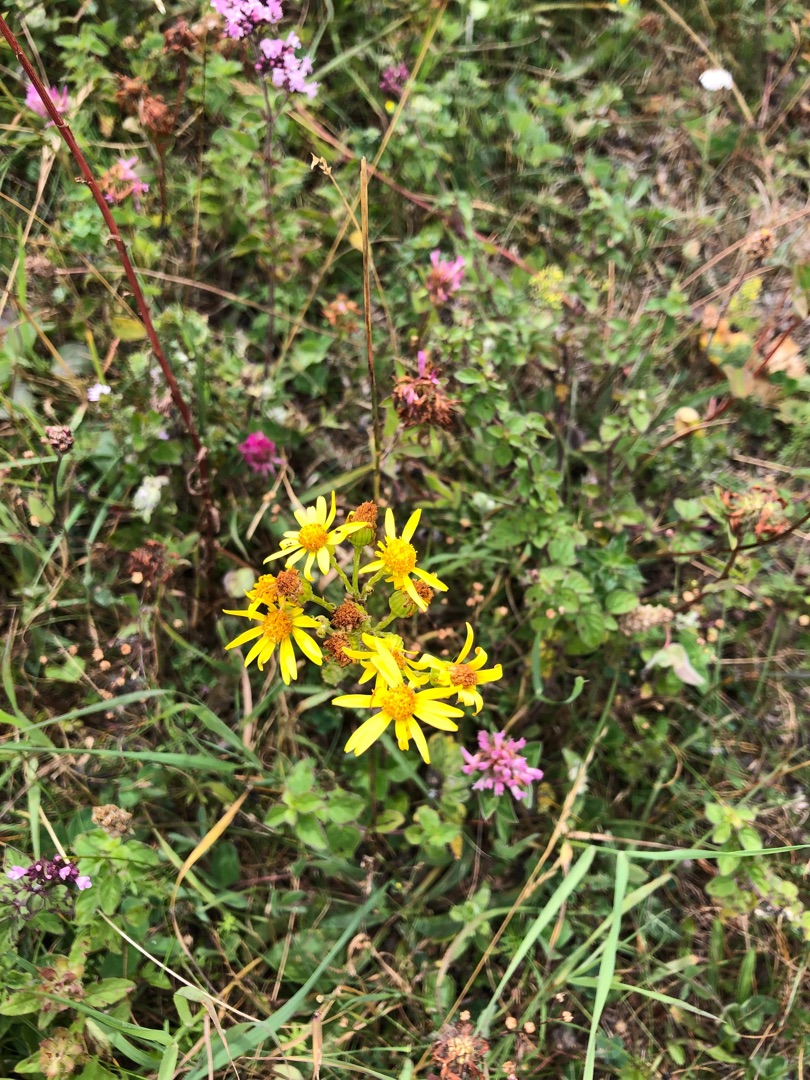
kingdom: Plantae
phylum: Tracheophyta
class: Magnoliopsida
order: Asterales
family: Asteraceae
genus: Jacobaea
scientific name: Jacobaea vulgaris
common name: Eng-brandbæger
